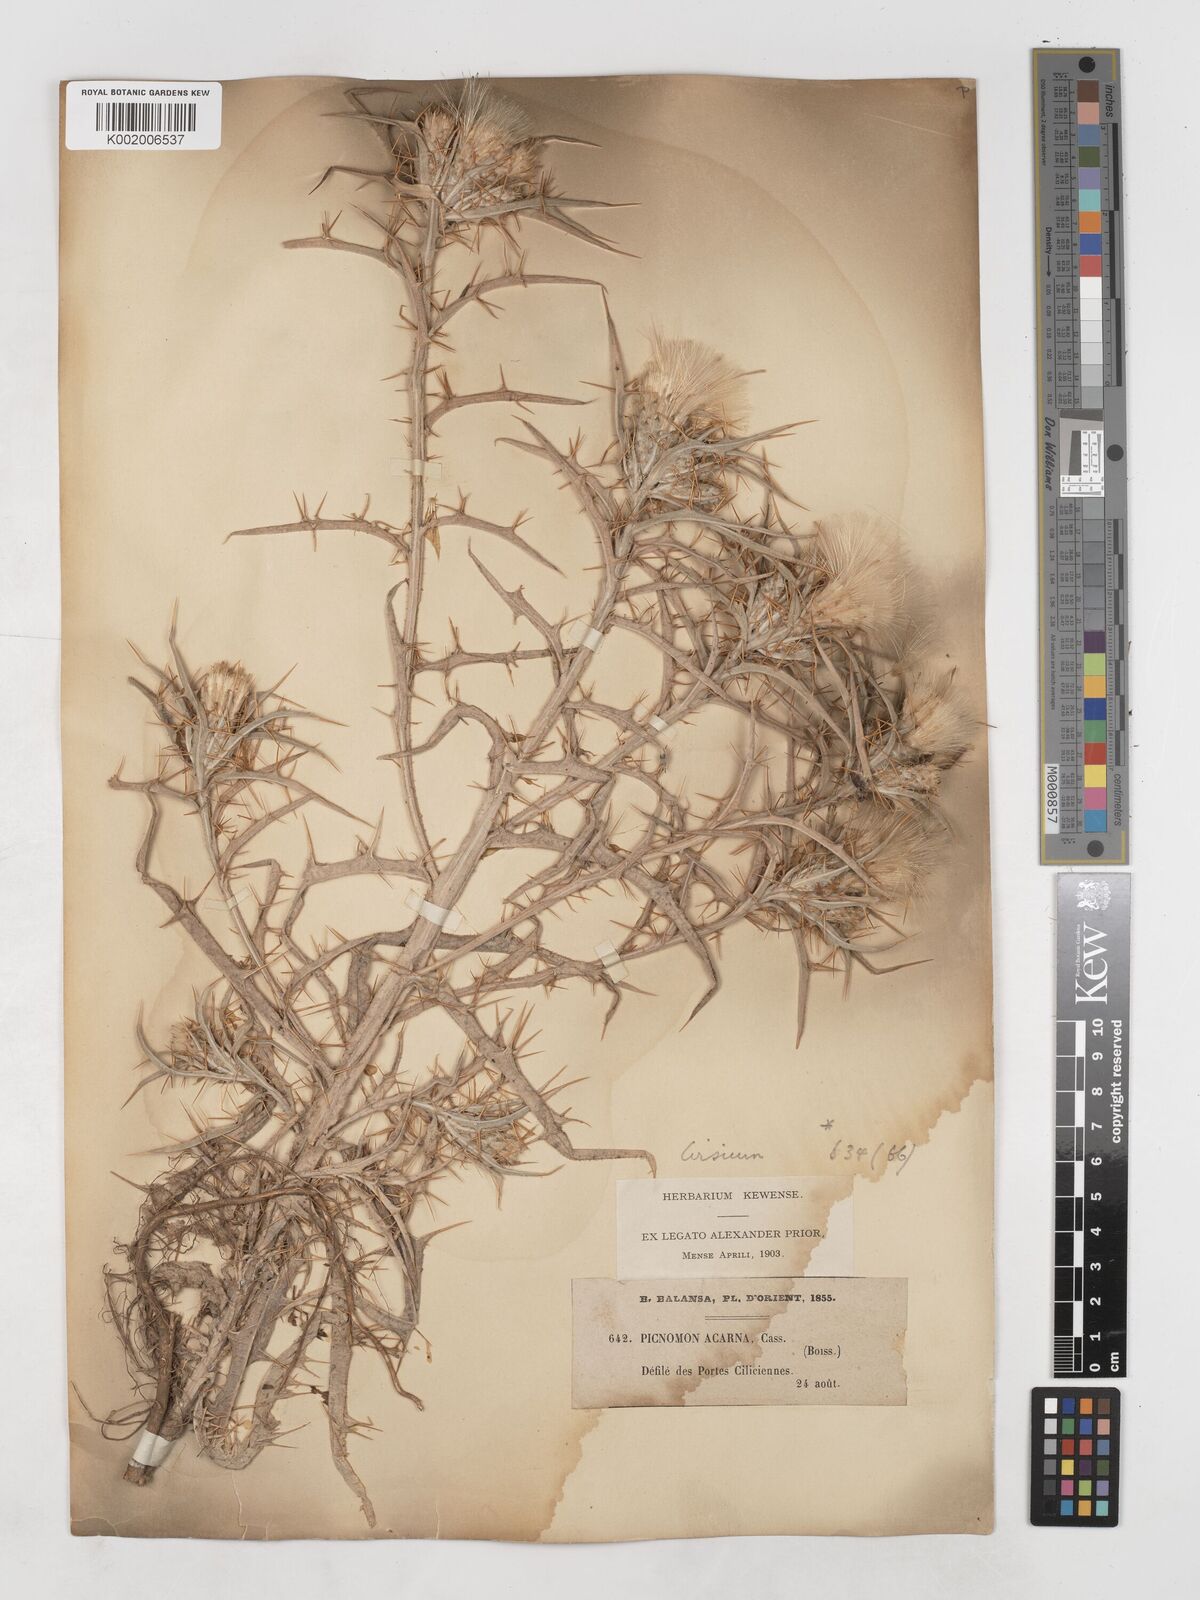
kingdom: Plantae
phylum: Tracheophyta
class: Magnoliopsida
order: Asterales
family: Asteraceae
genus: Picnomon
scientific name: Picnomon acarna
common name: Soldier thistle
